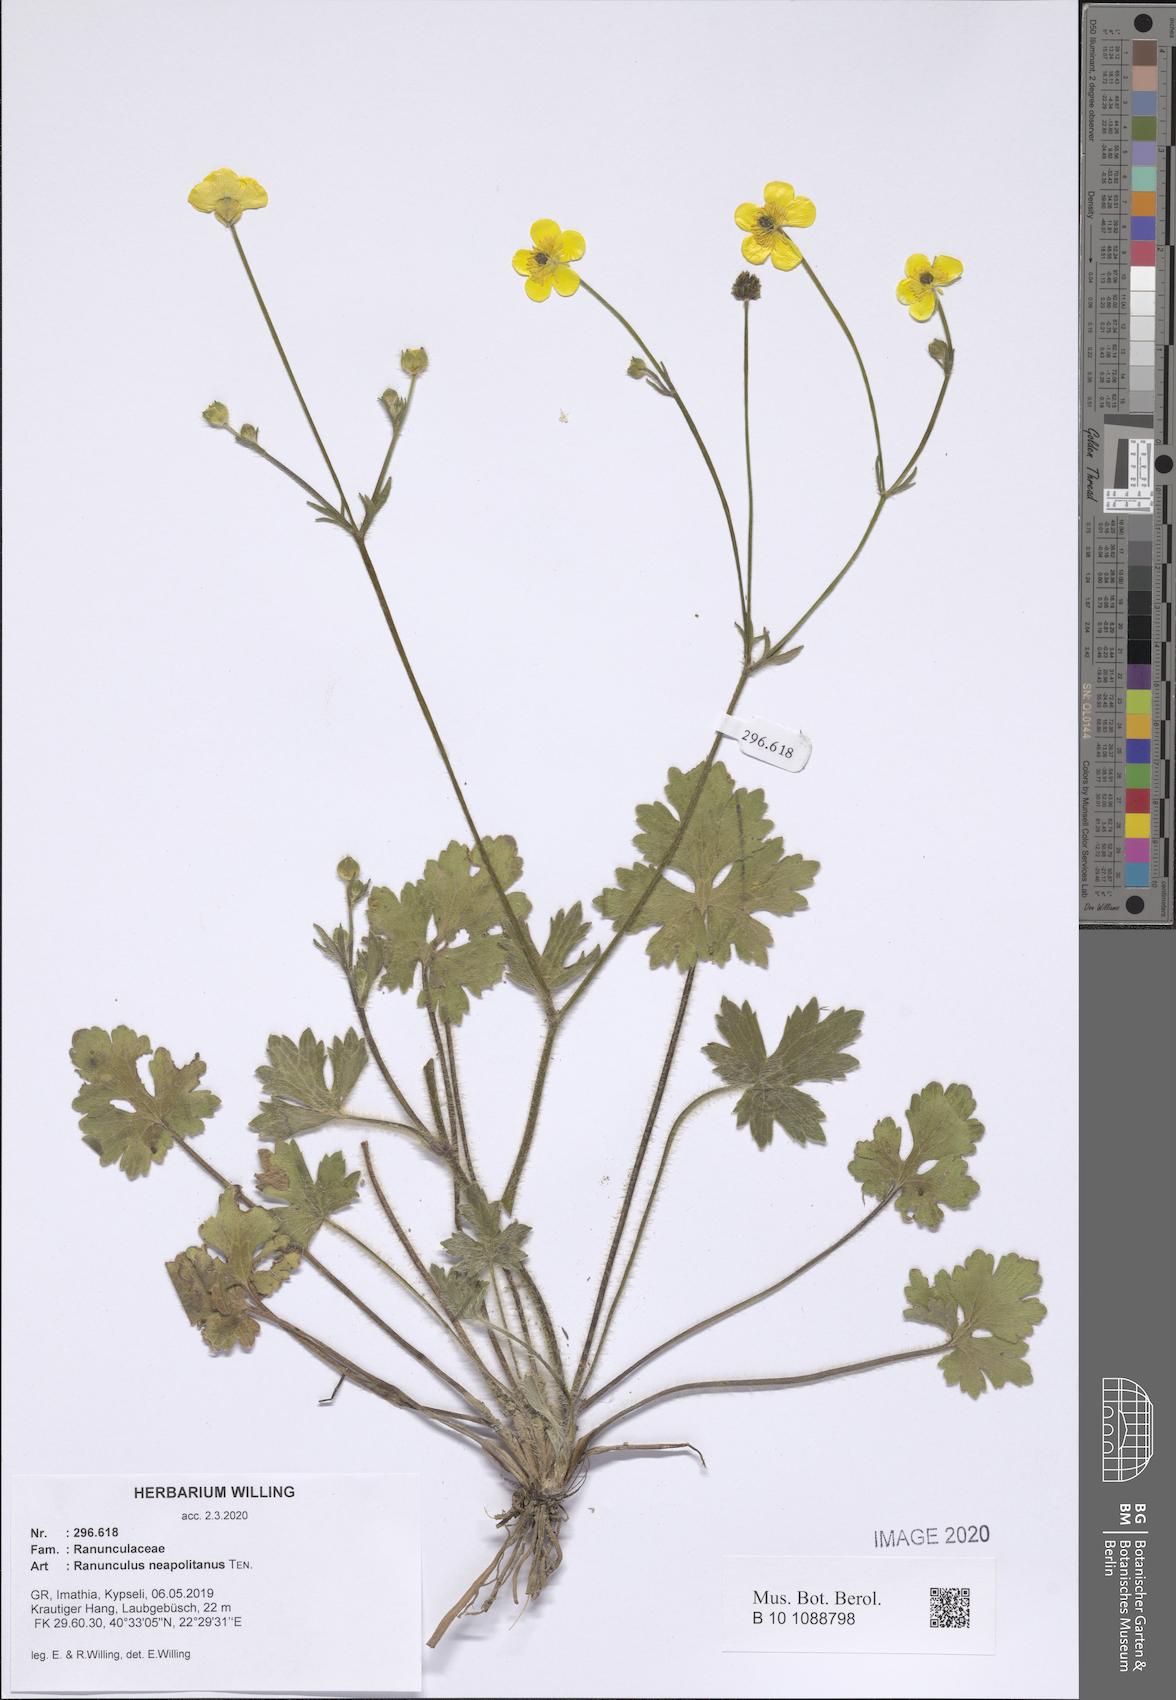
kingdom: Plantae
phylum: Tracheophyta
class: Magnoliopsida
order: Ranunculales
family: Ranunculaceae
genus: Ranunculus
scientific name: Ranunculus neapolitanus
